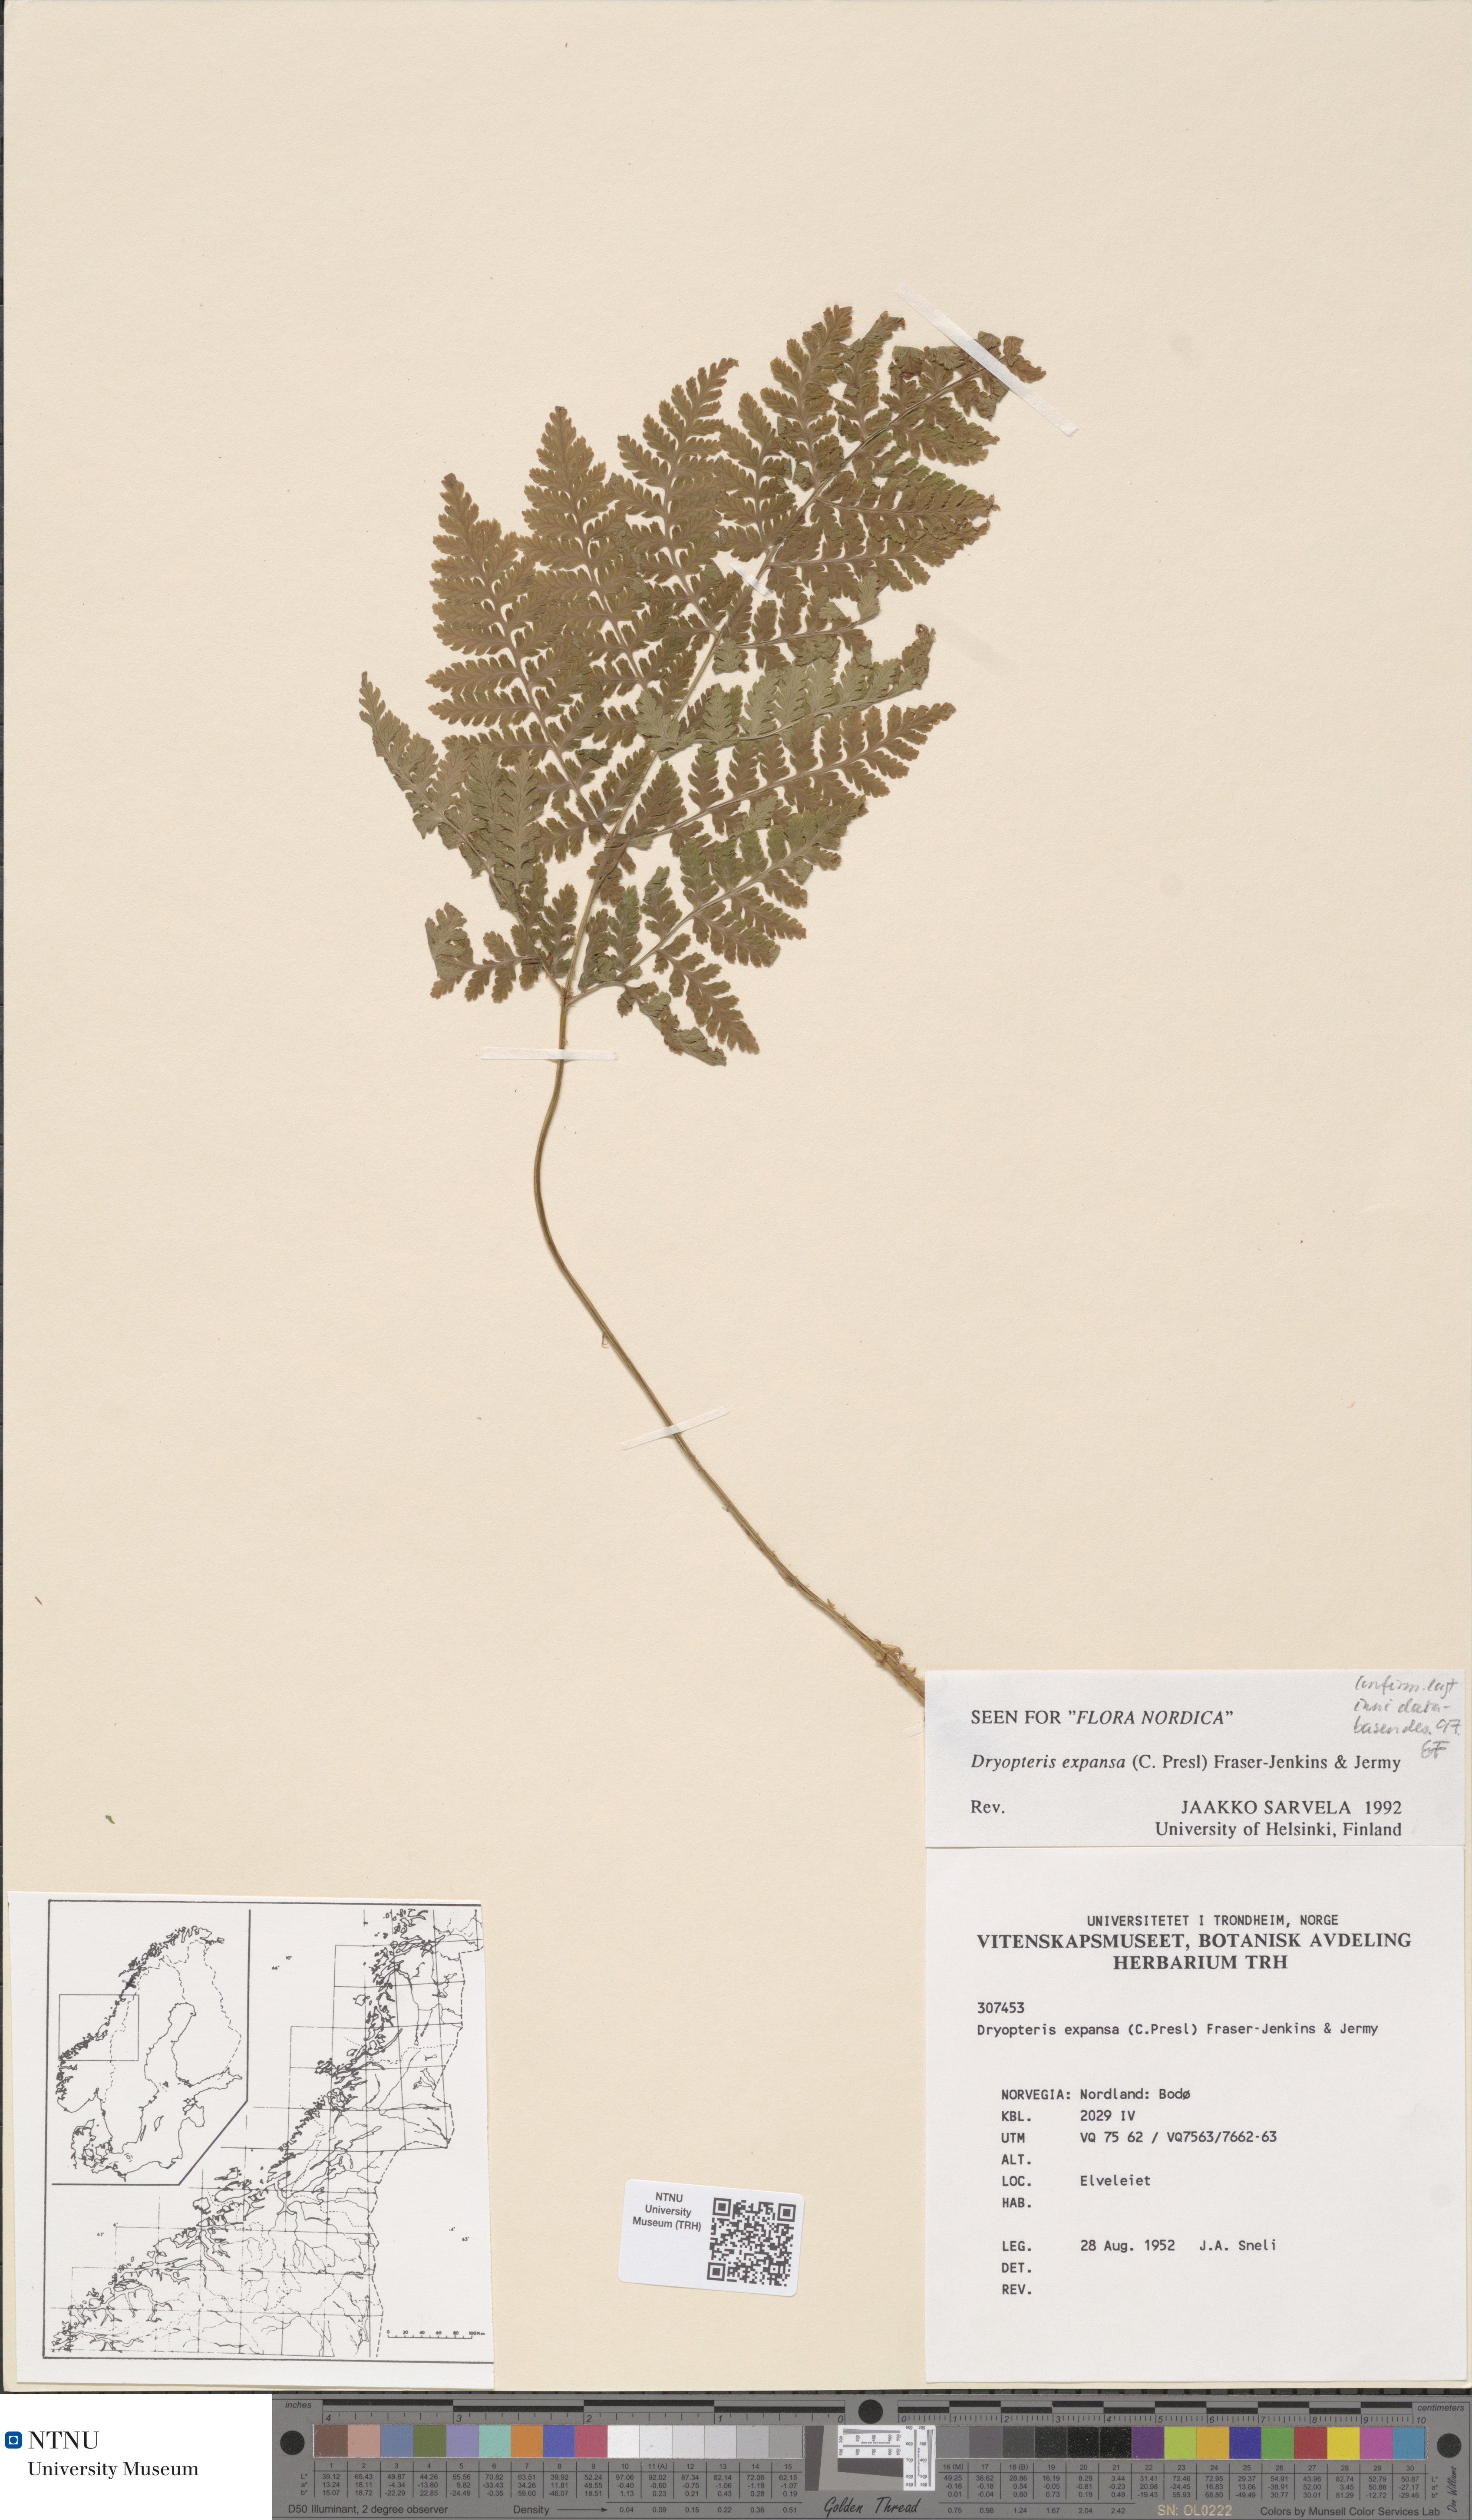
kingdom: Plantae
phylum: Tracheophyta
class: Polypodiopsida
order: Polypodiales
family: Dryopteridaceae
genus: Dryopteris
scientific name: Dryopteris expansa
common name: Northern buckler fern
